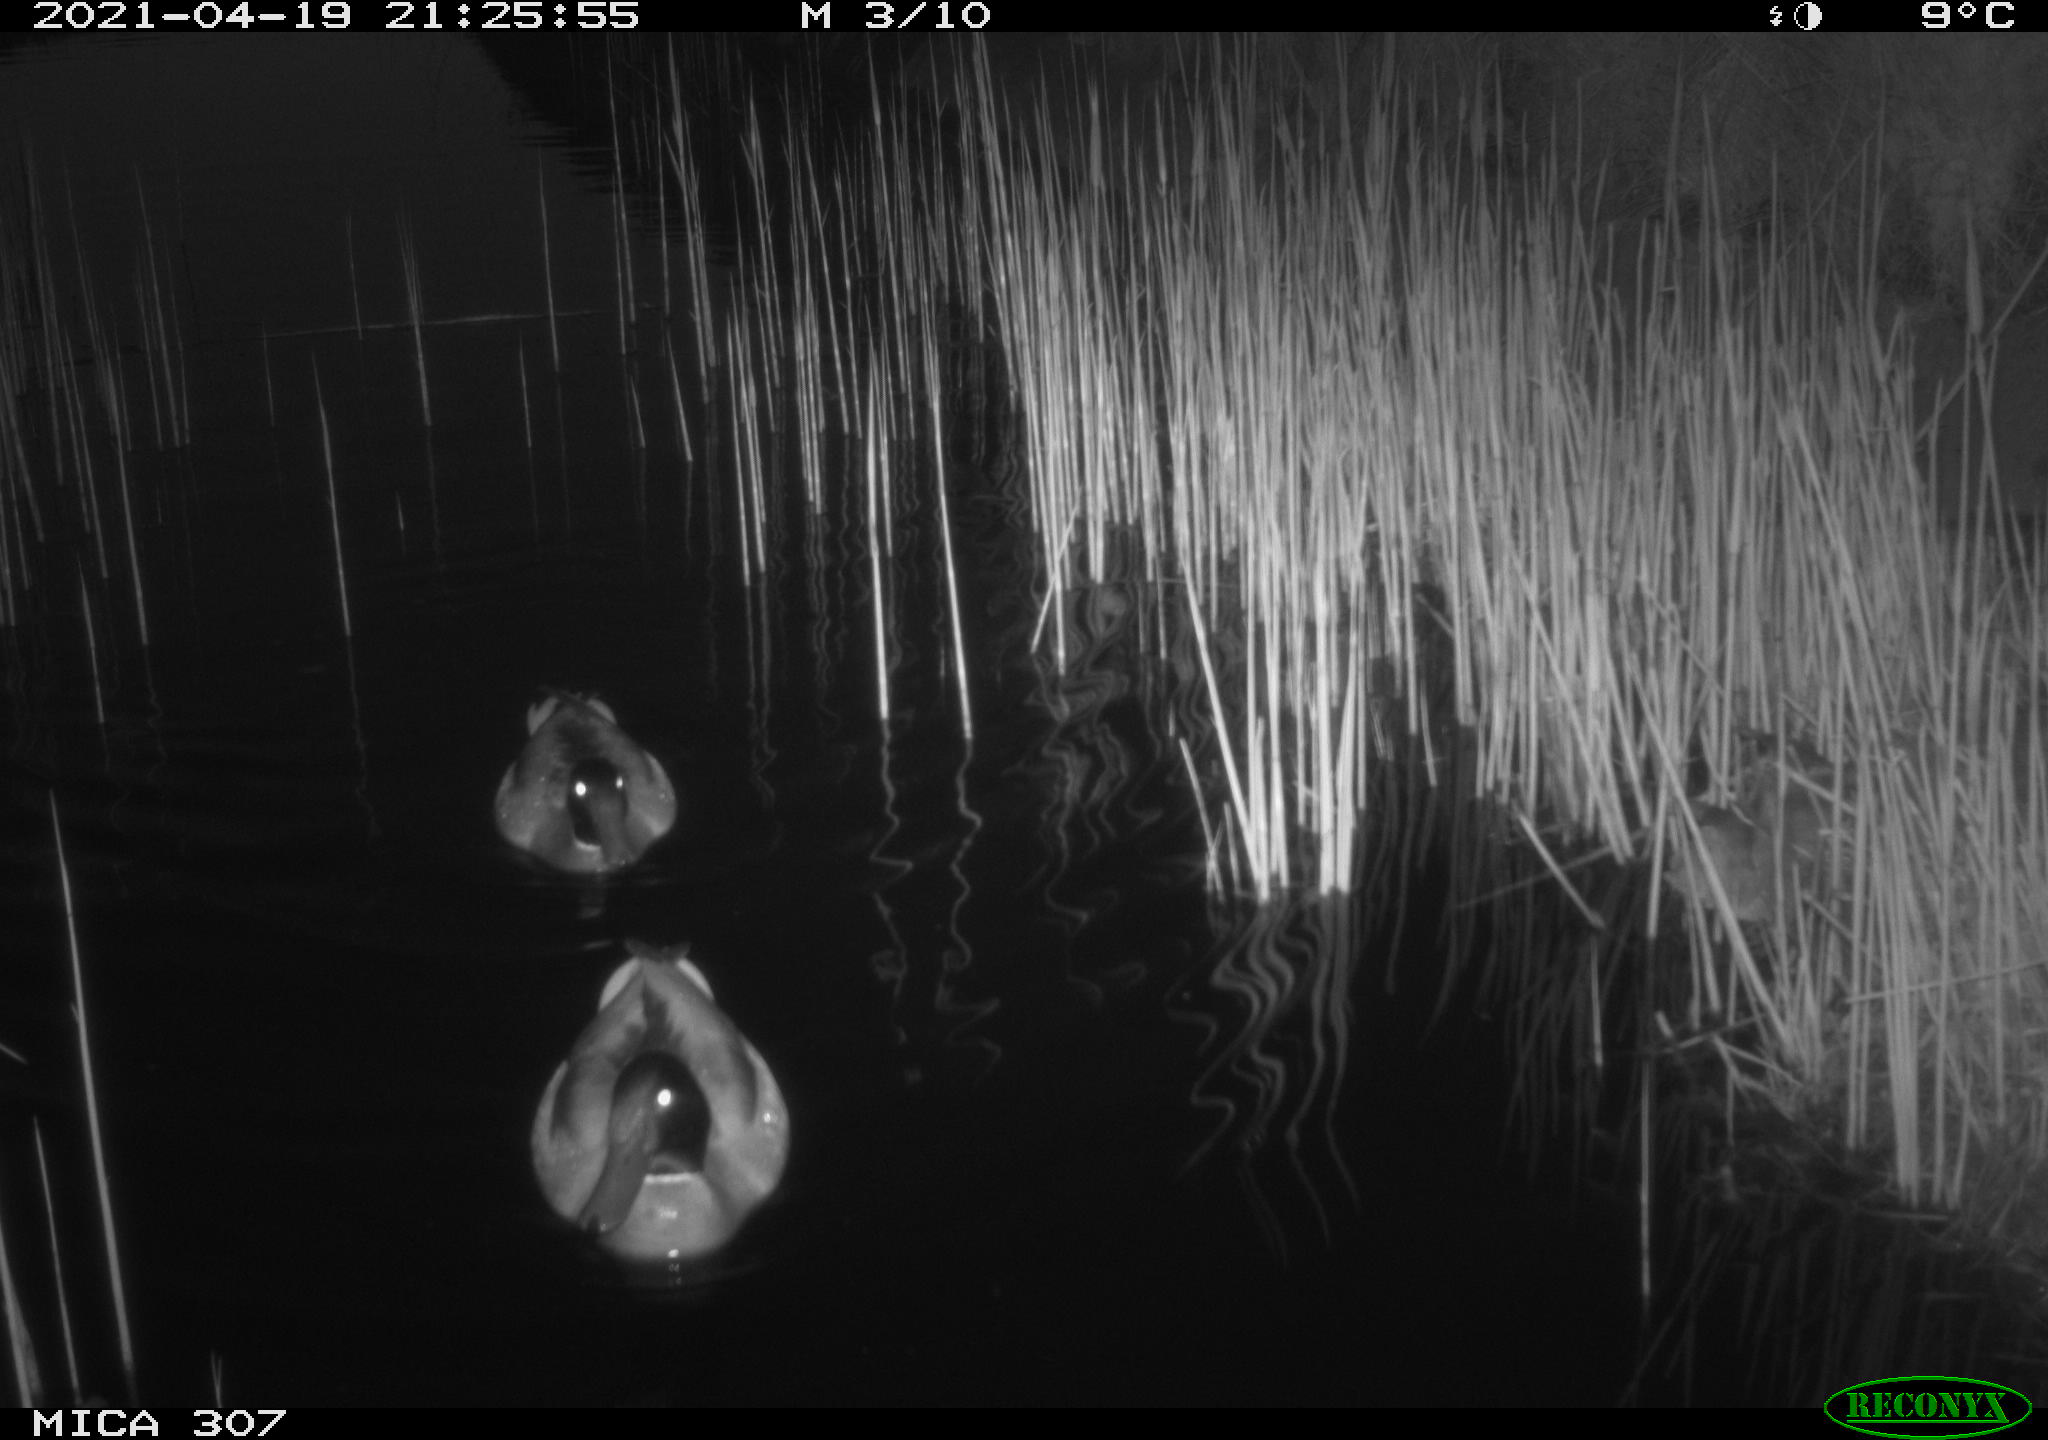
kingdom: Animalia
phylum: Chordata
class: Aves
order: Anseriformes
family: Anatidae
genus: Anas
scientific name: Anas platyrhynchos
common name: Mallard
